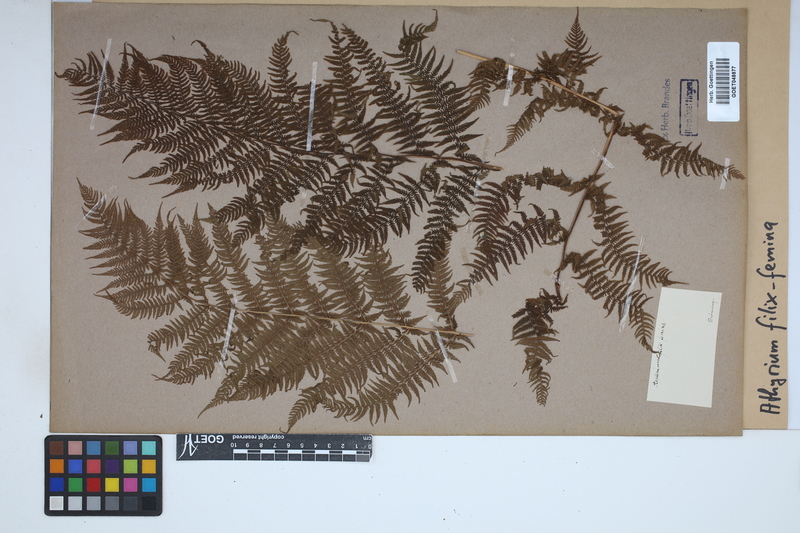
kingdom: Plantae
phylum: Tracheophyta
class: Polypodiopsida
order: Polypodiales
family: Athyriaceae
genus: Athyrium
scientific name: Athyrium filix-femina
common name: Lady fern
